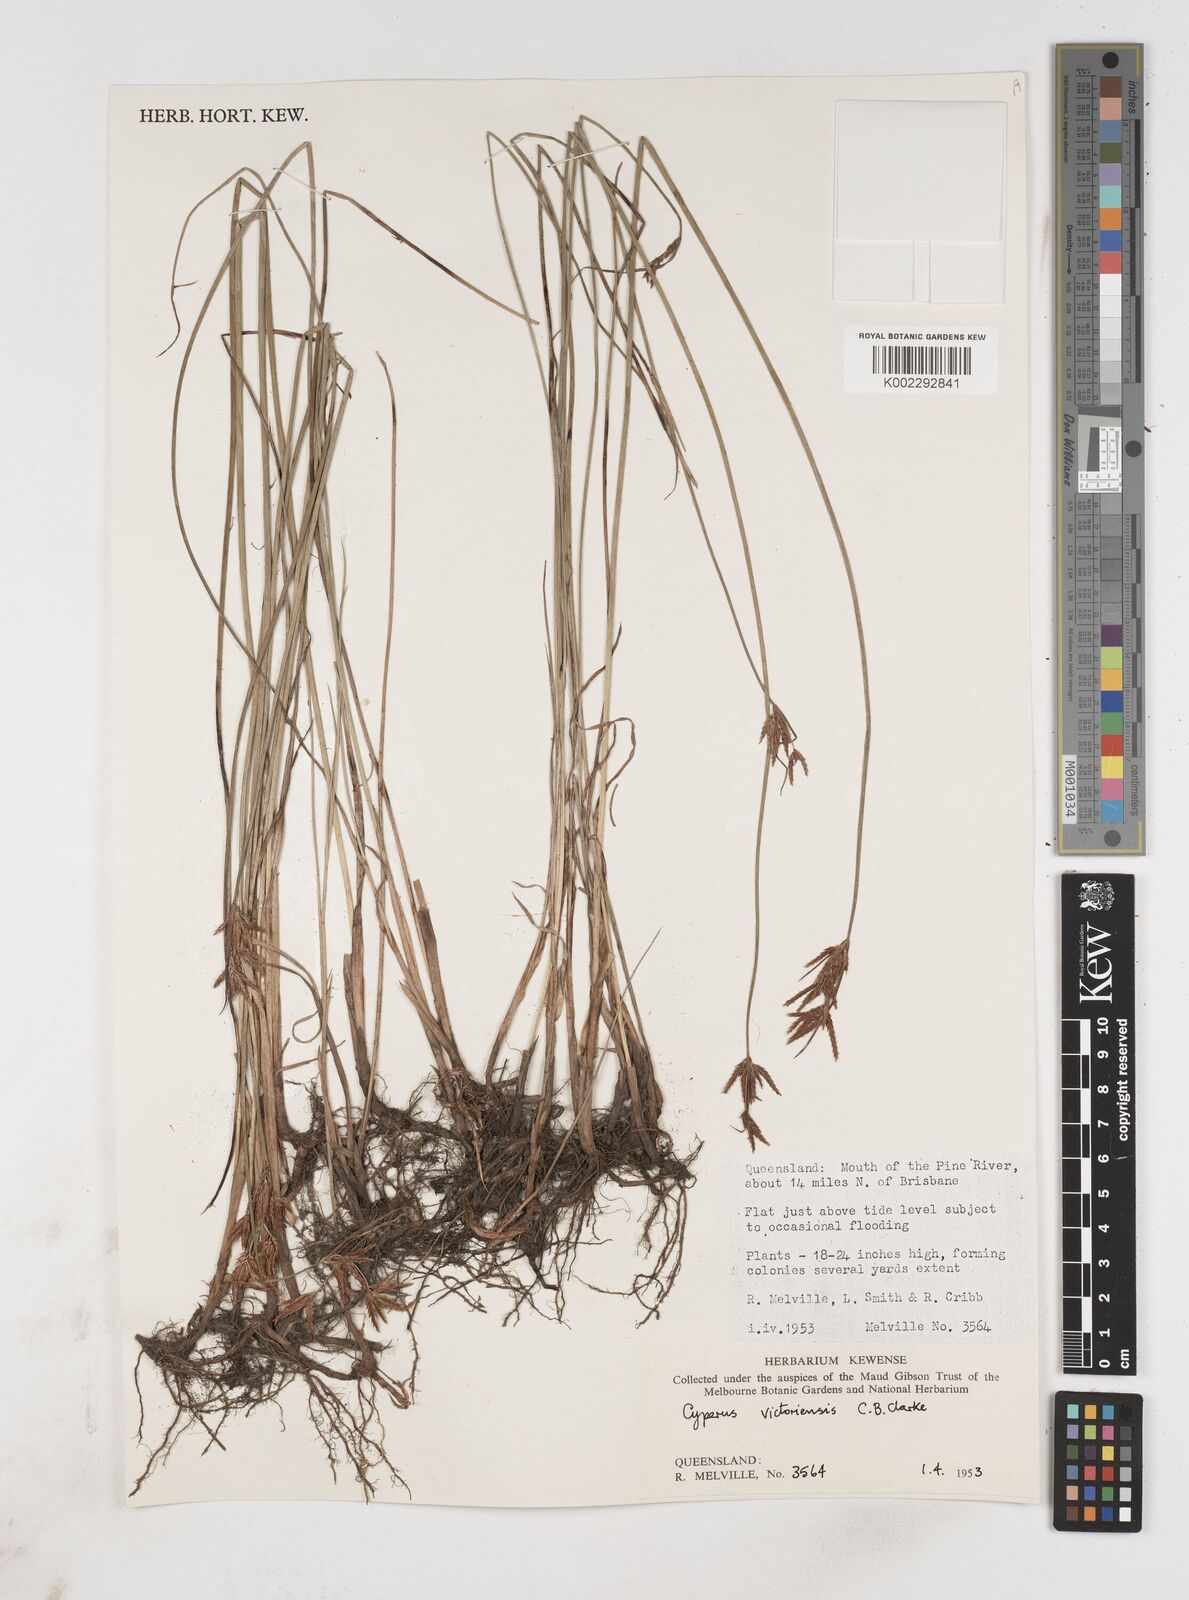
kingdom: Plantae
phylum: Tracheophyta
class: Liliopsida
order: Poales
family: Cyperaceae
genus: Cyperus
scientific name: Cyperus victoriensis
